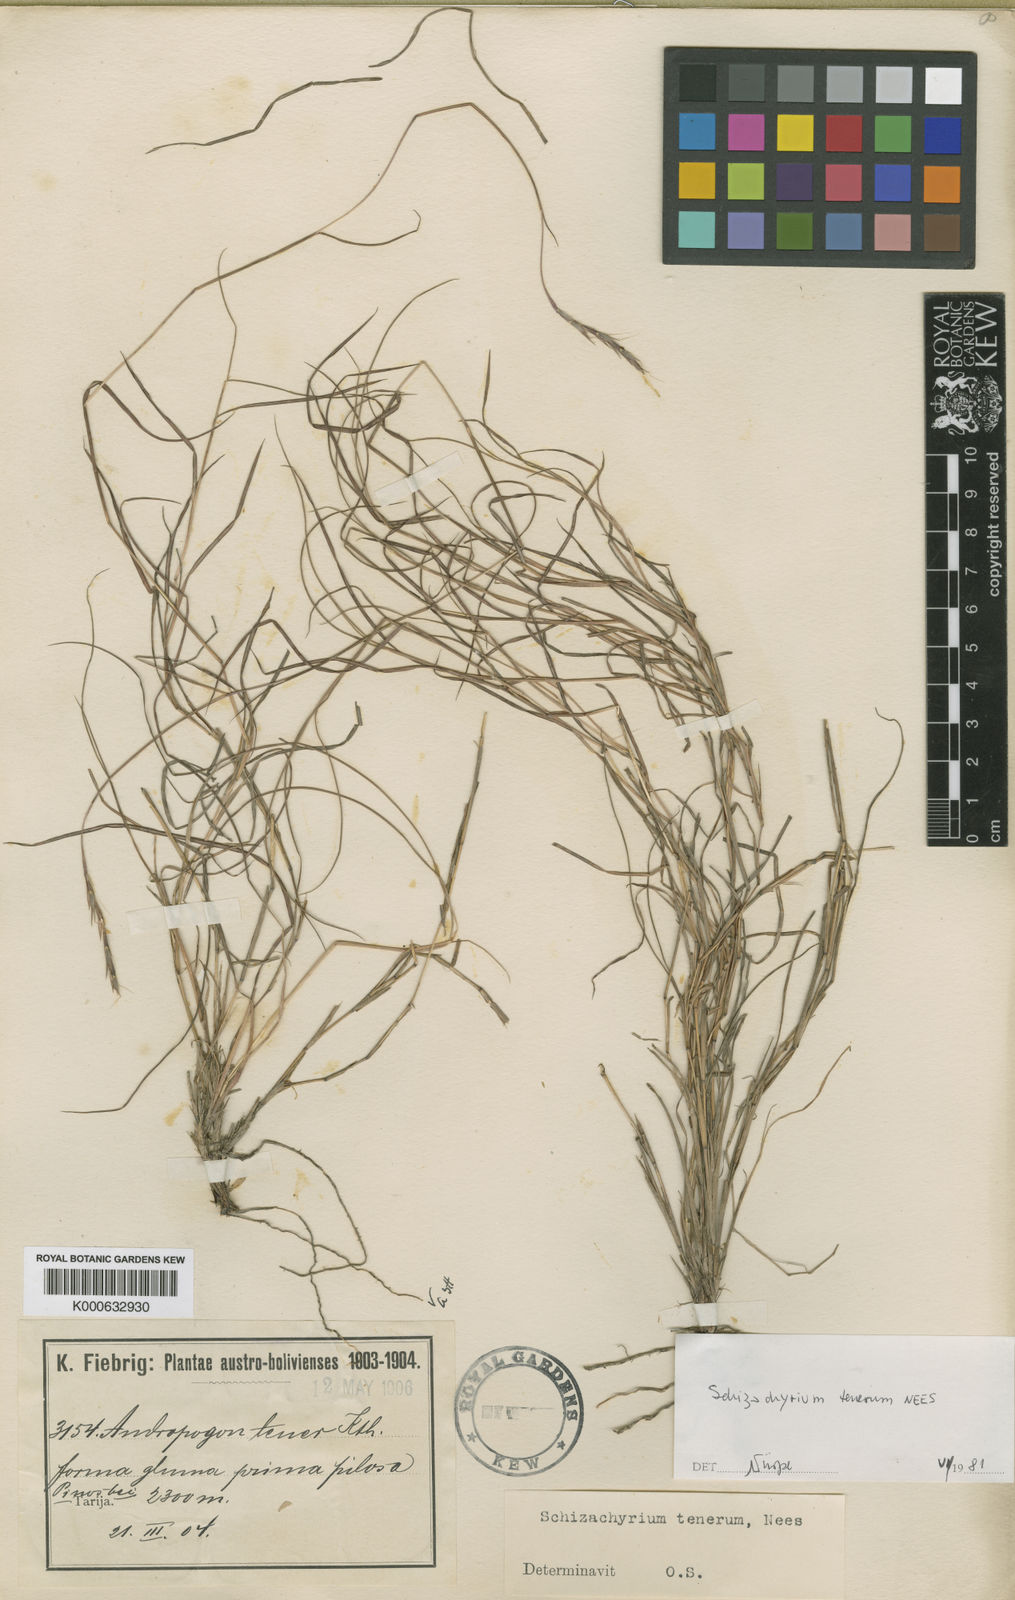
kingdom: Plantae
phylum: Tracheophyta
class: Liliopsida
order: Poales
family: Poaceae
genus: Andropogon
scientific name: Andropogon tener
